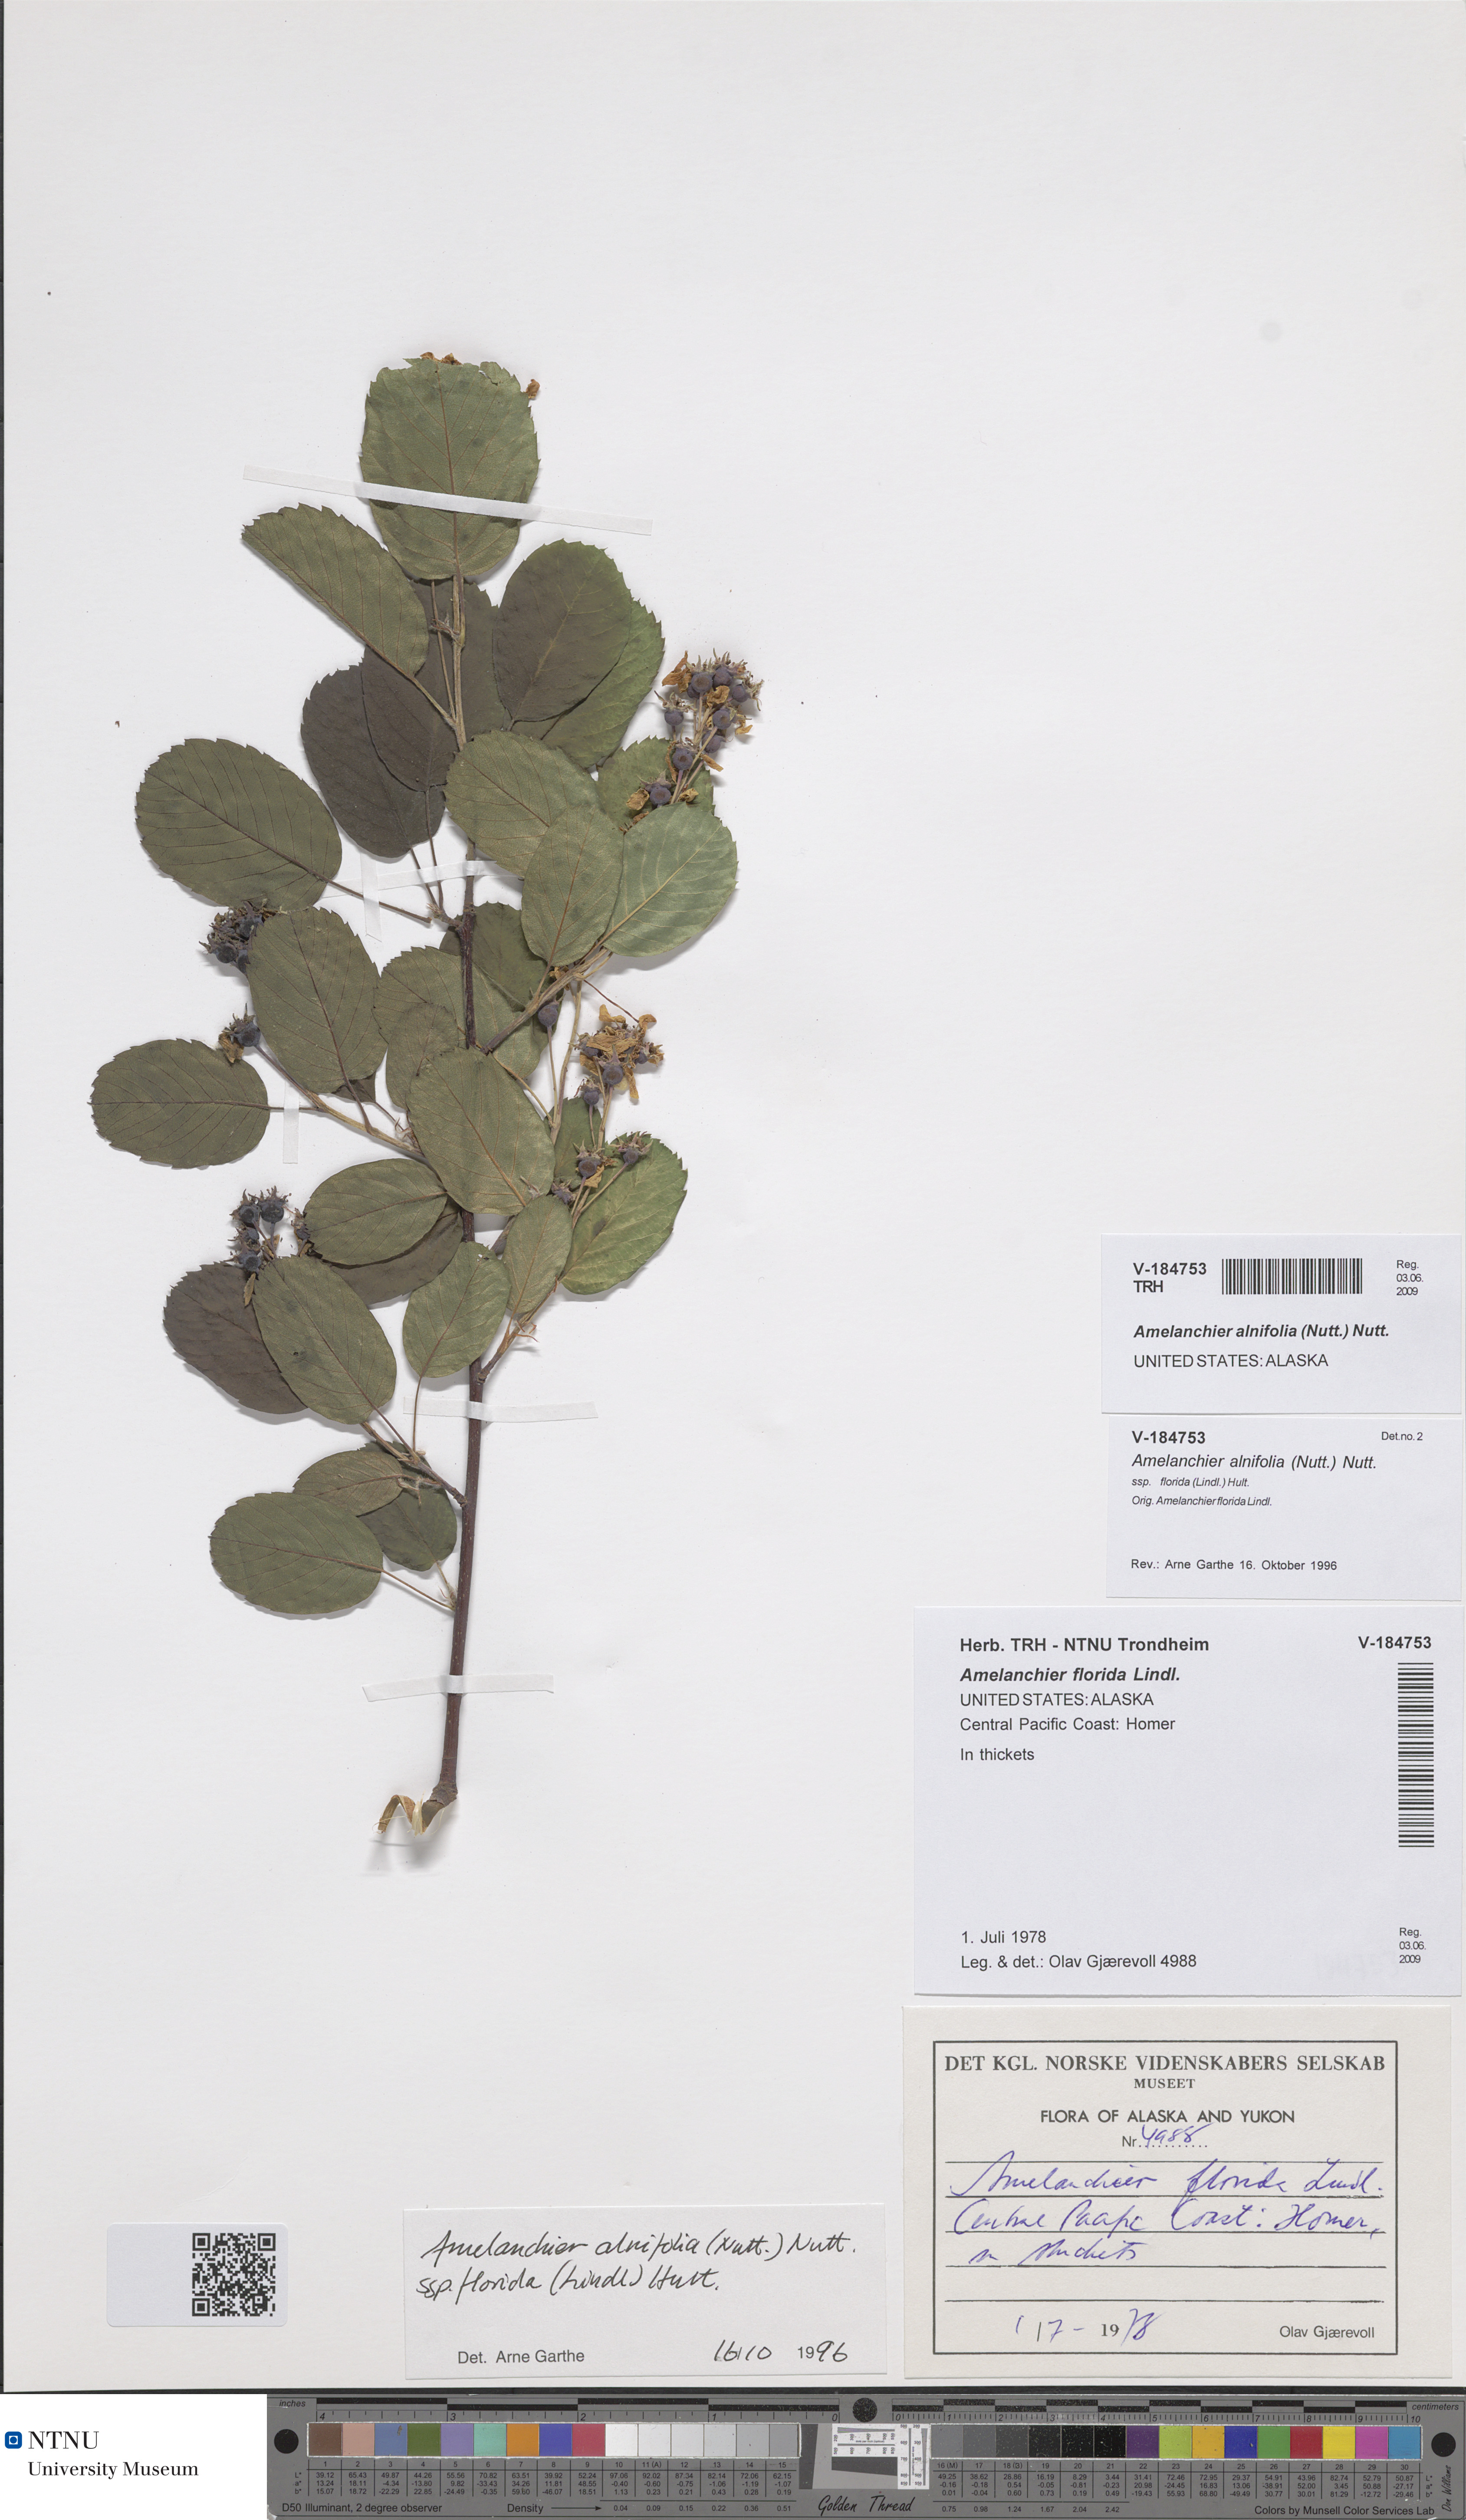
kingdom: Plantae
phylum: Tracheophyta
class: Magnoliopsida
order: Rosales
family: Rosaceae
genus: Amelanchier
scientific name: Amelanchier alnifolia
